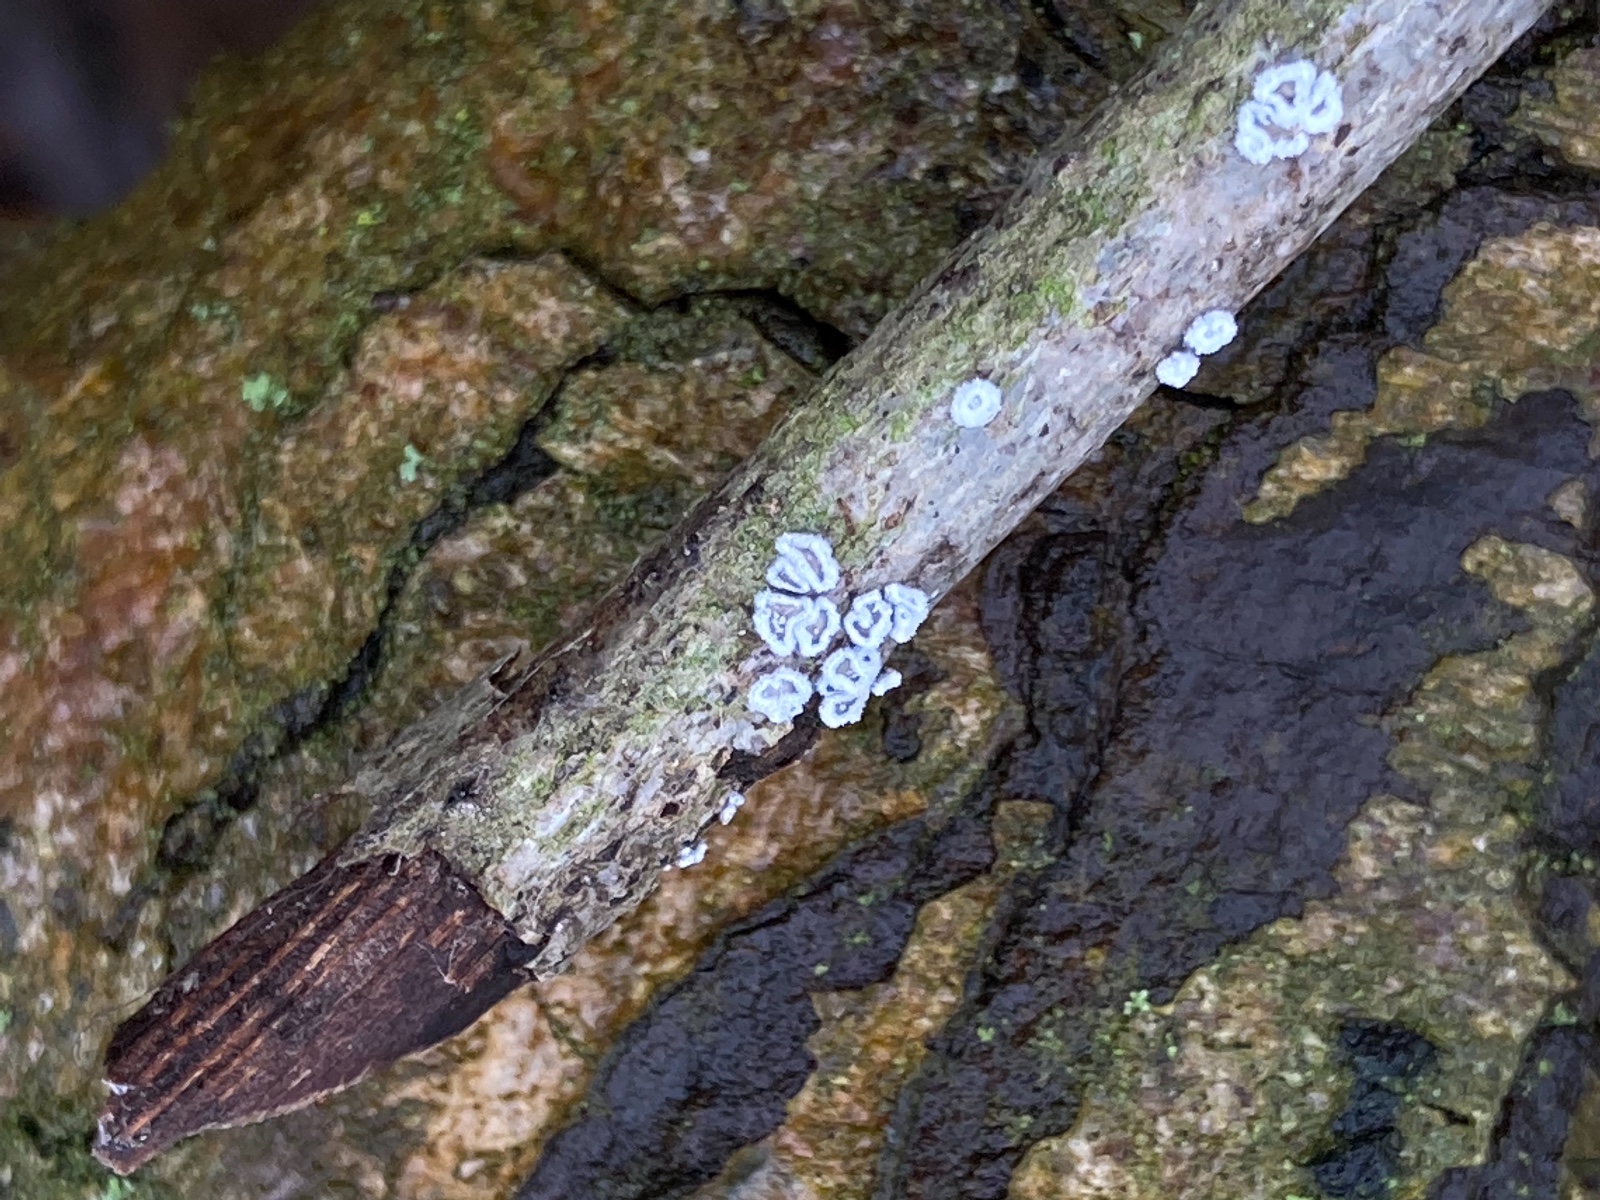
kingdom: Fungi
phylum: Basidiomycota
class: Agaricomycetes
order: Agaricales
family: Niaceae
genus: Lachnella
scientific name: Lachnella alboviolascens
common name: grå frynserede
